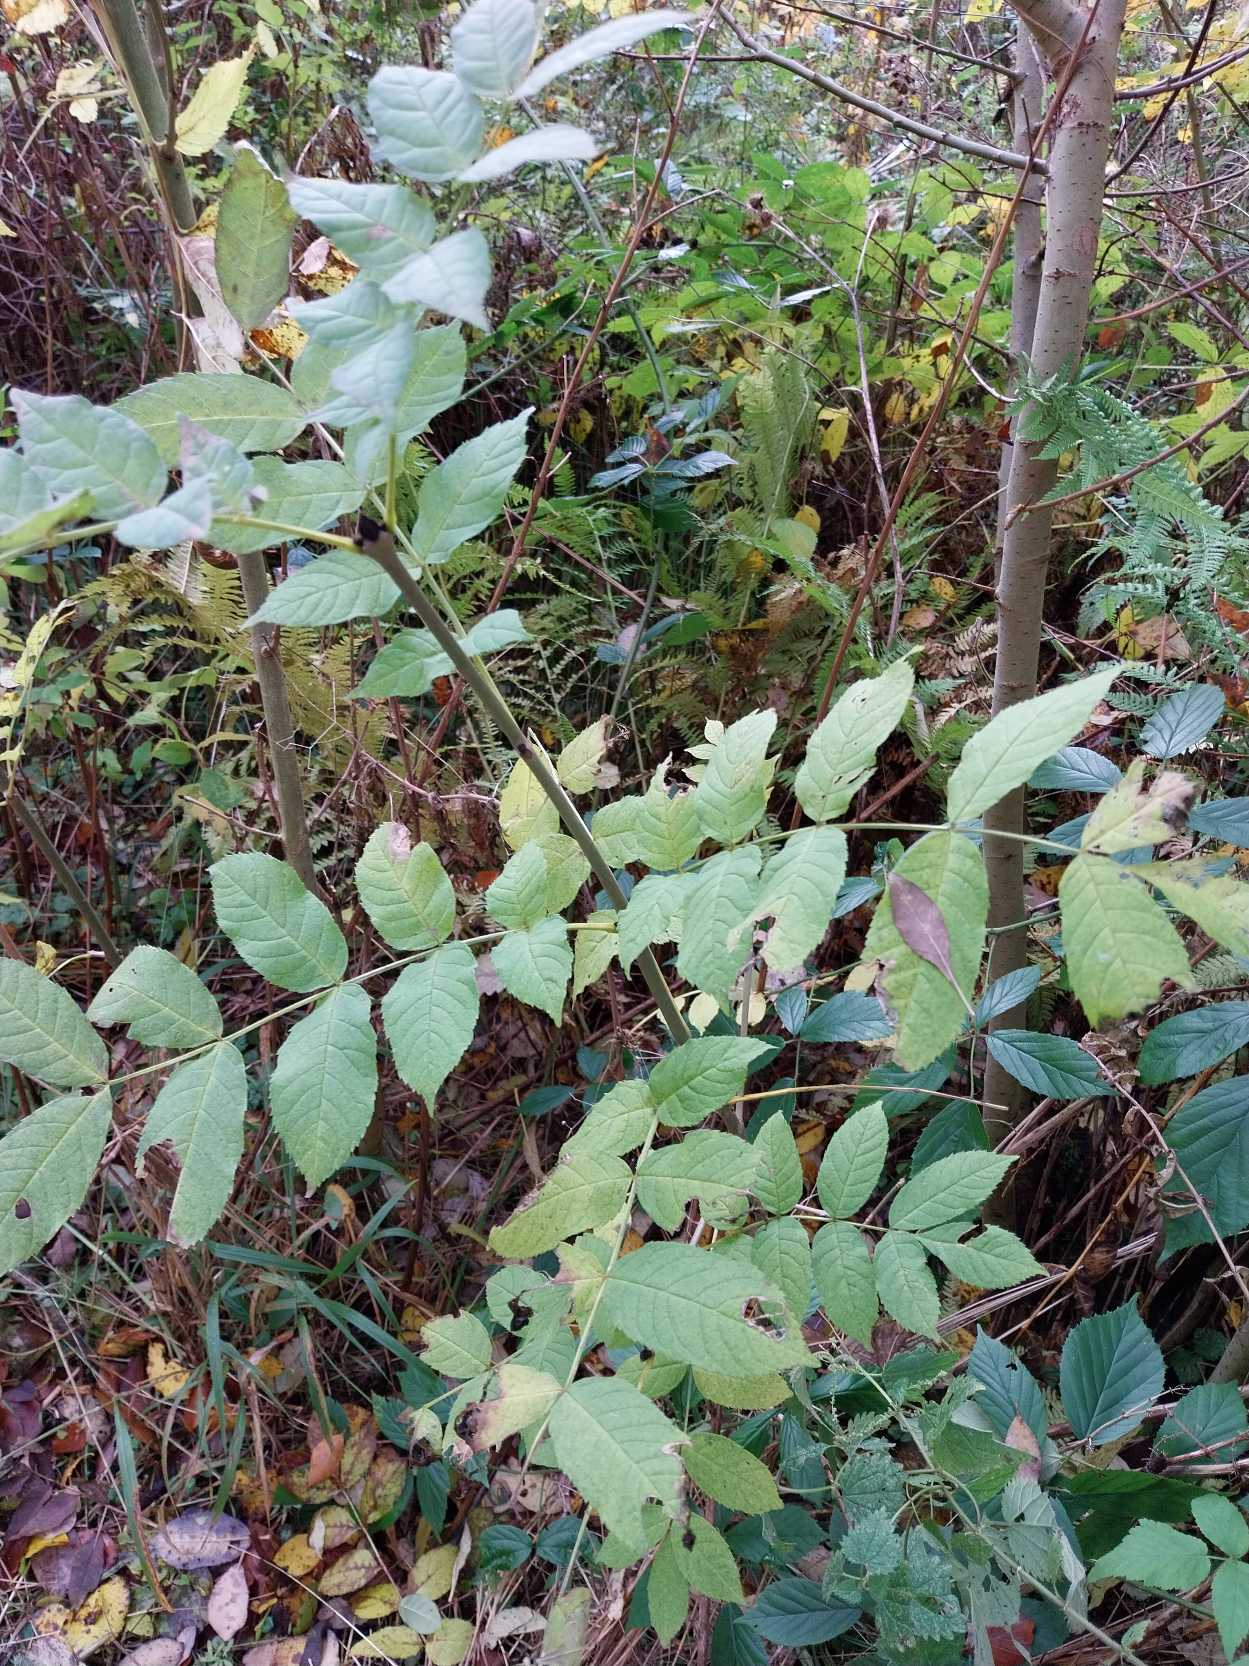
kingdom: Plantae
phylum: Tracheophyta
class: Magnoliopsida
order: Lamiales
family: Oleaceae
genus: Fraxinus
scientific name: Fraxinus excelsior
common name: Ask
